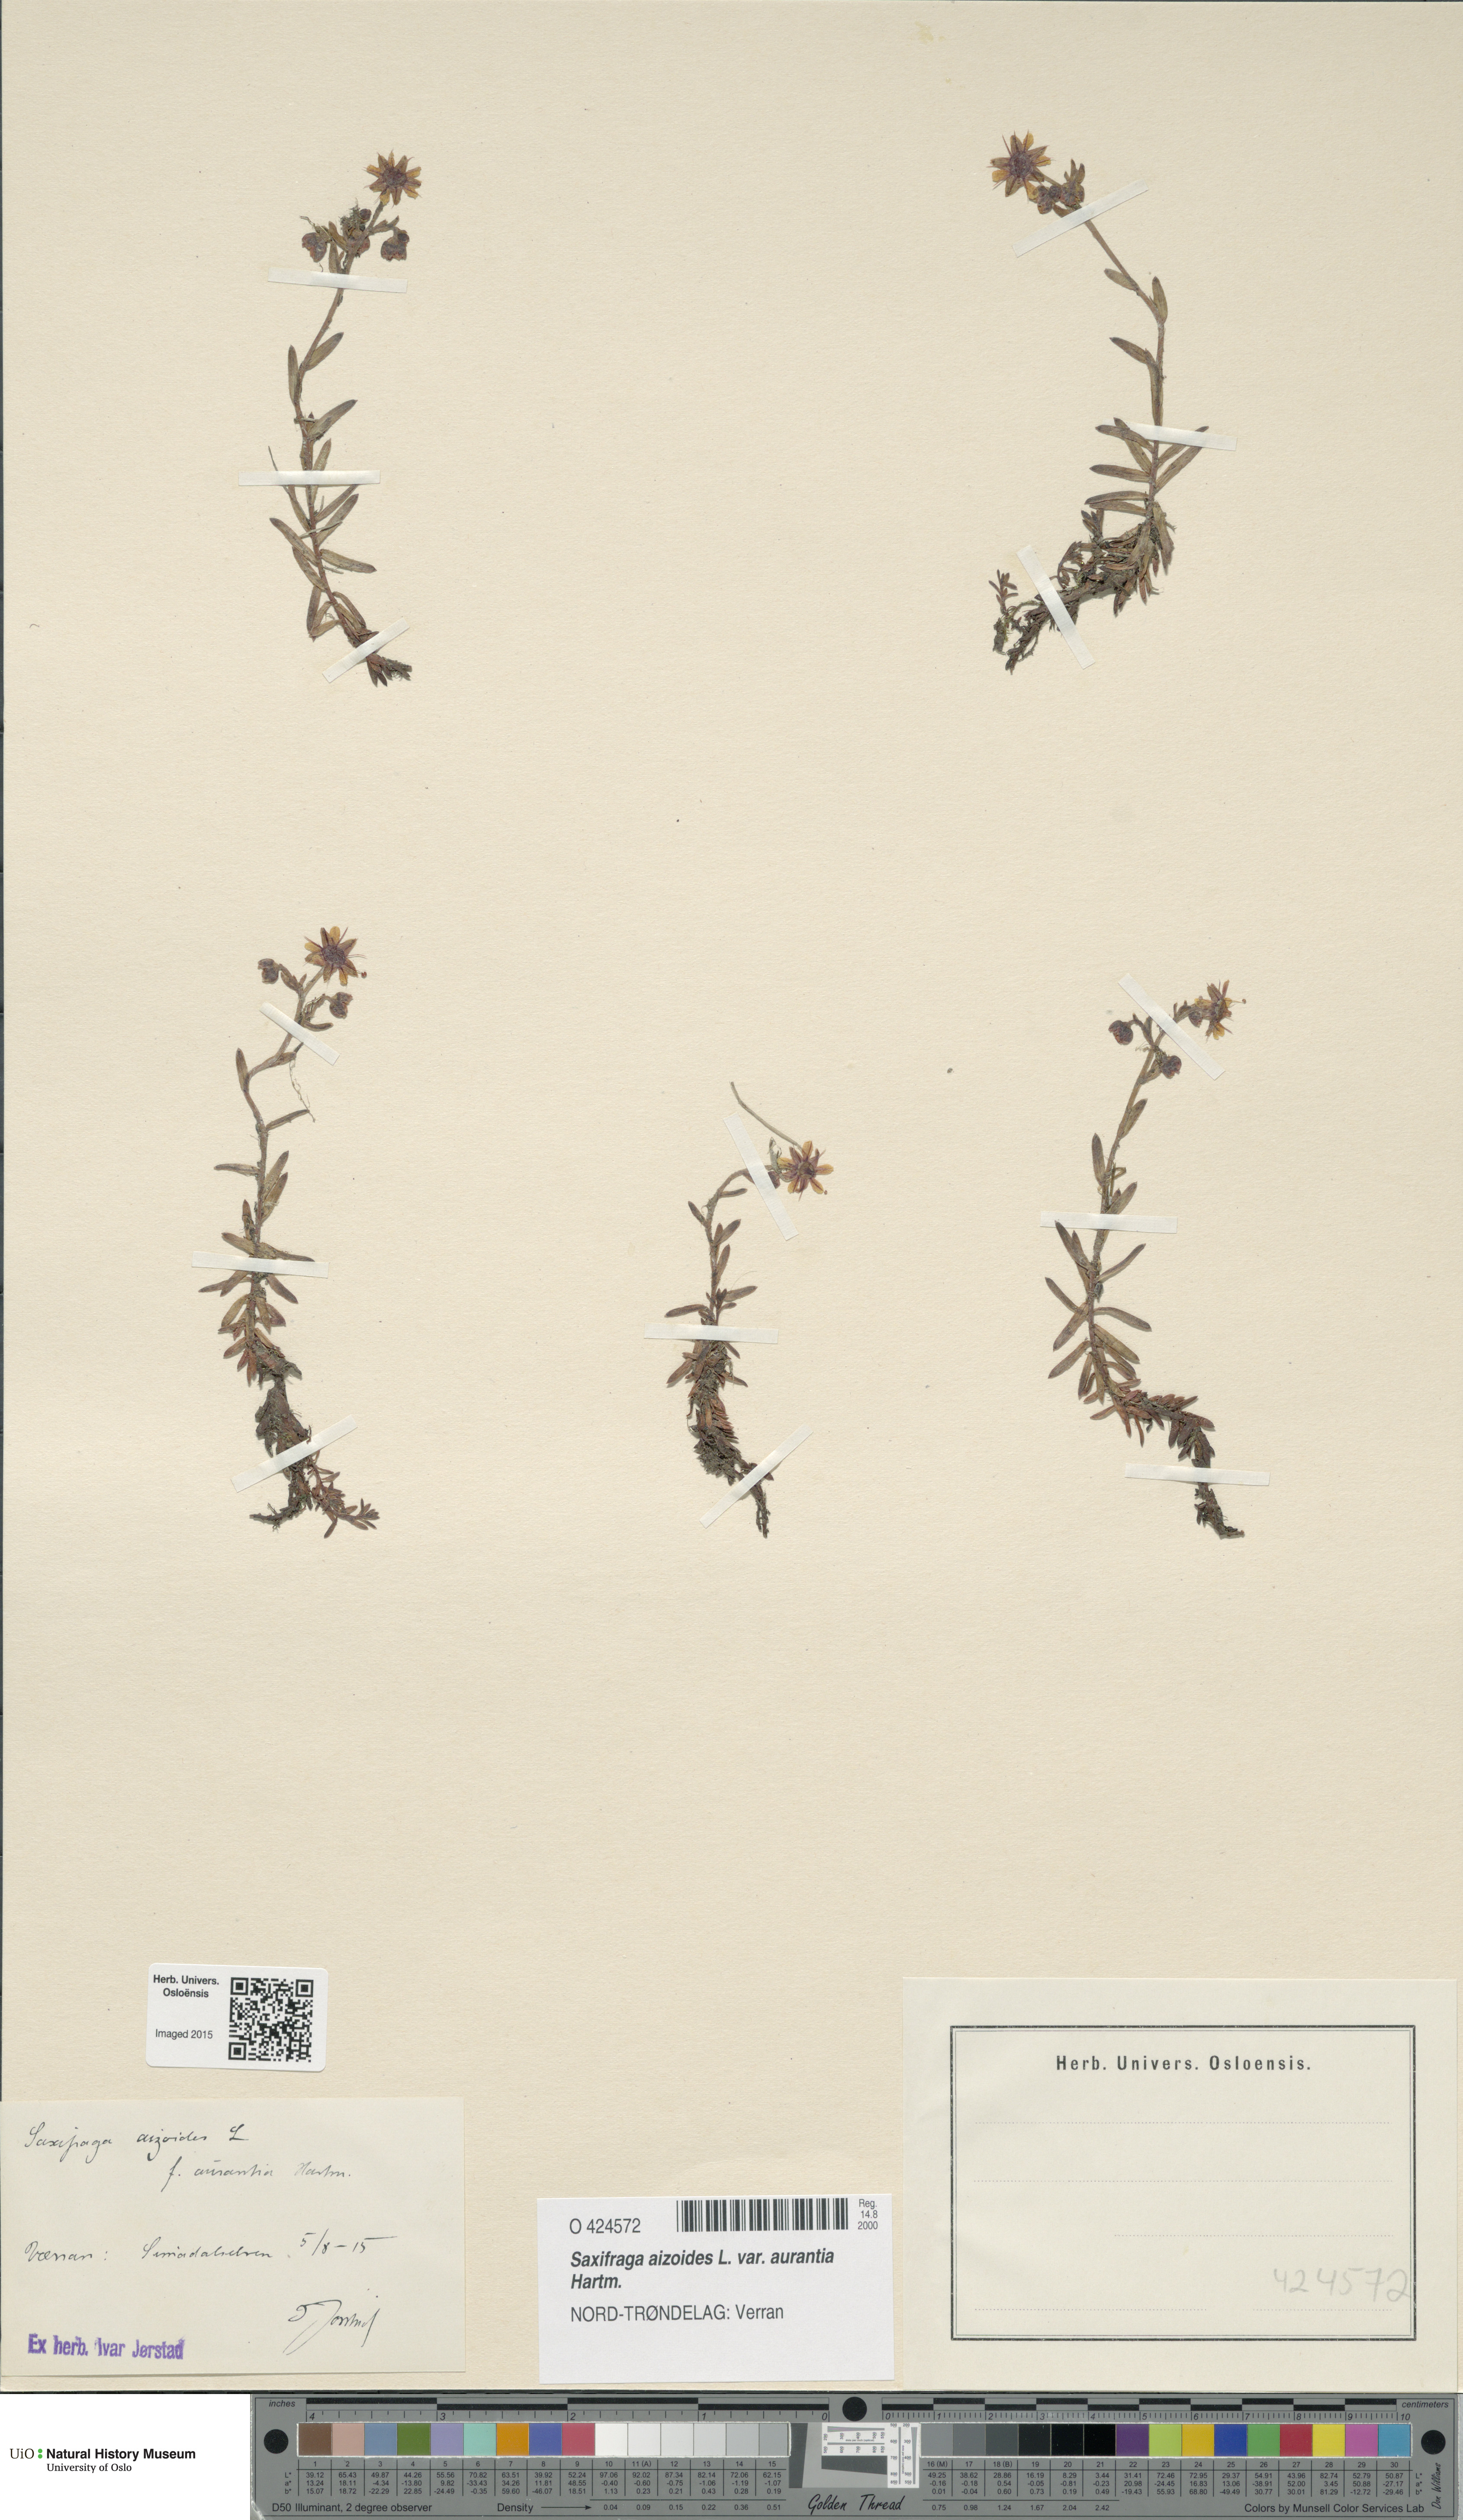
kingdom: Plantae
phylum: Tracheophyta
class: Magnoliopsida
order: Saxifragales
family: Saxifragaceae
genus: Saxifraga
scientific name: Saxifraga aizoides
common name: Yellow mountain saxifrage
